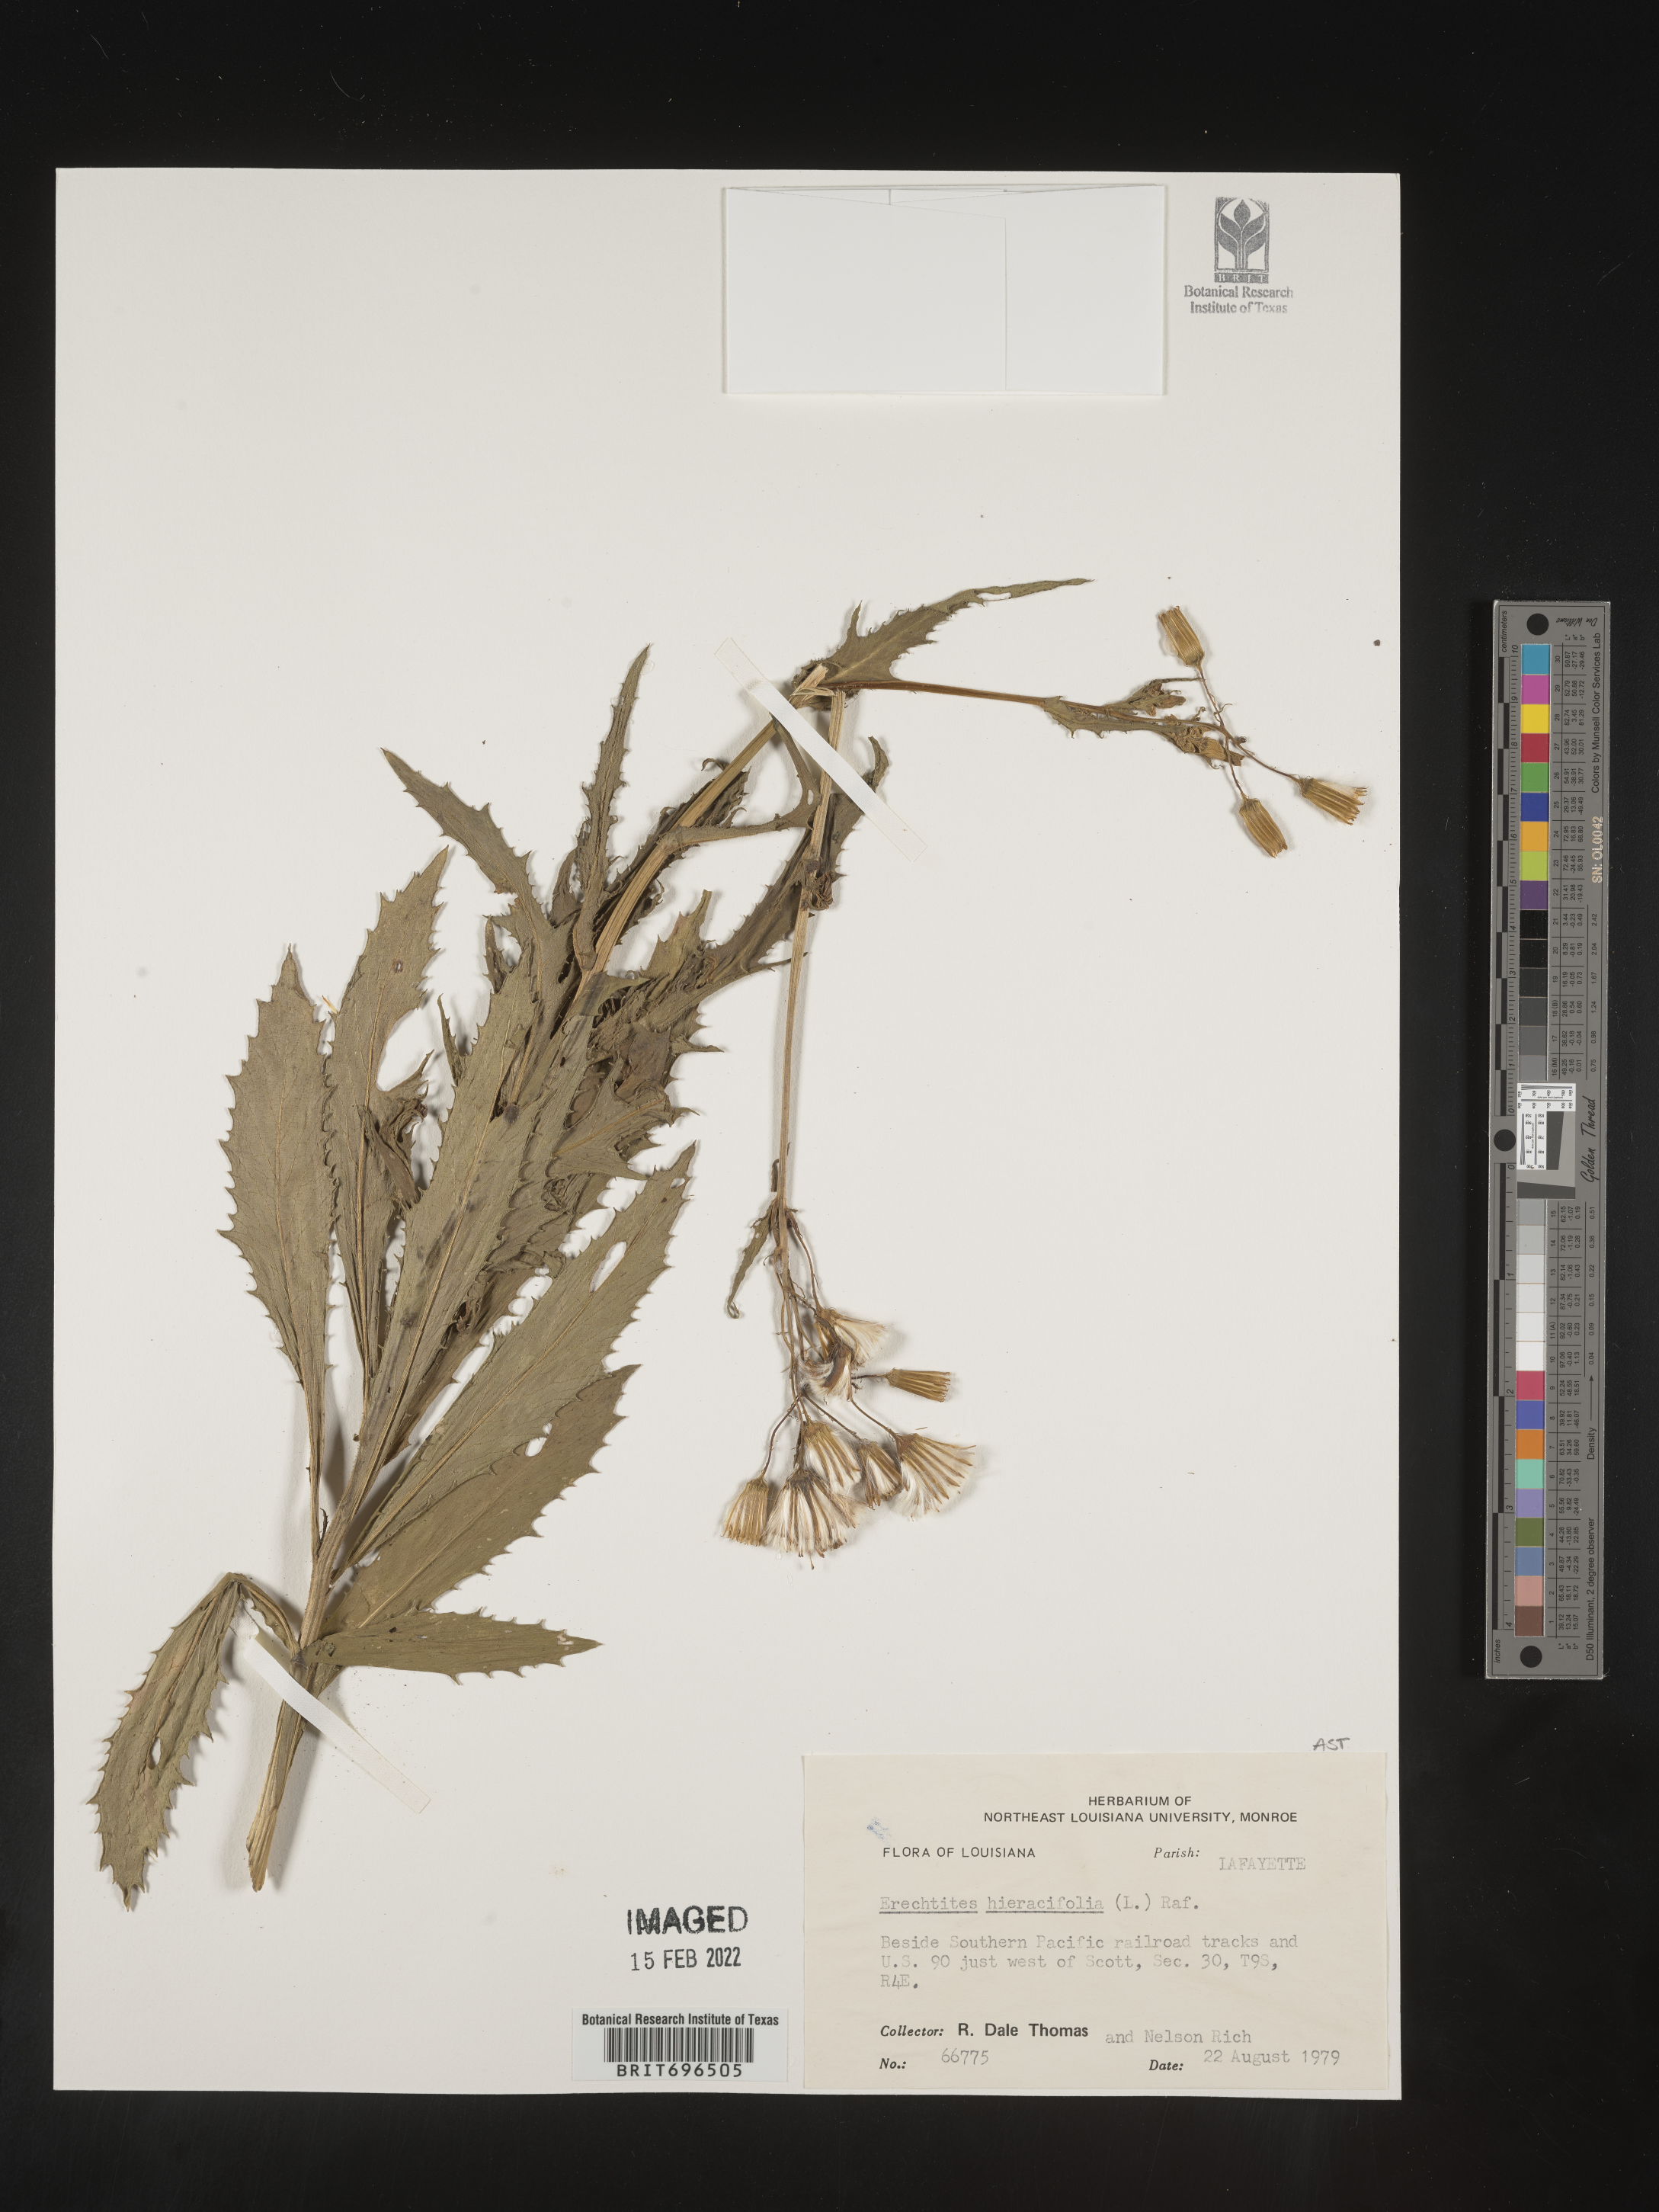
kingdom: Plantae
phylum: Tracheophyta
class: Magnoliopsida
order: Asterales
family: Asteraceae
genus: Erechtites
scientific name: Erechtites hieraciifolius
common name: American burnweed
